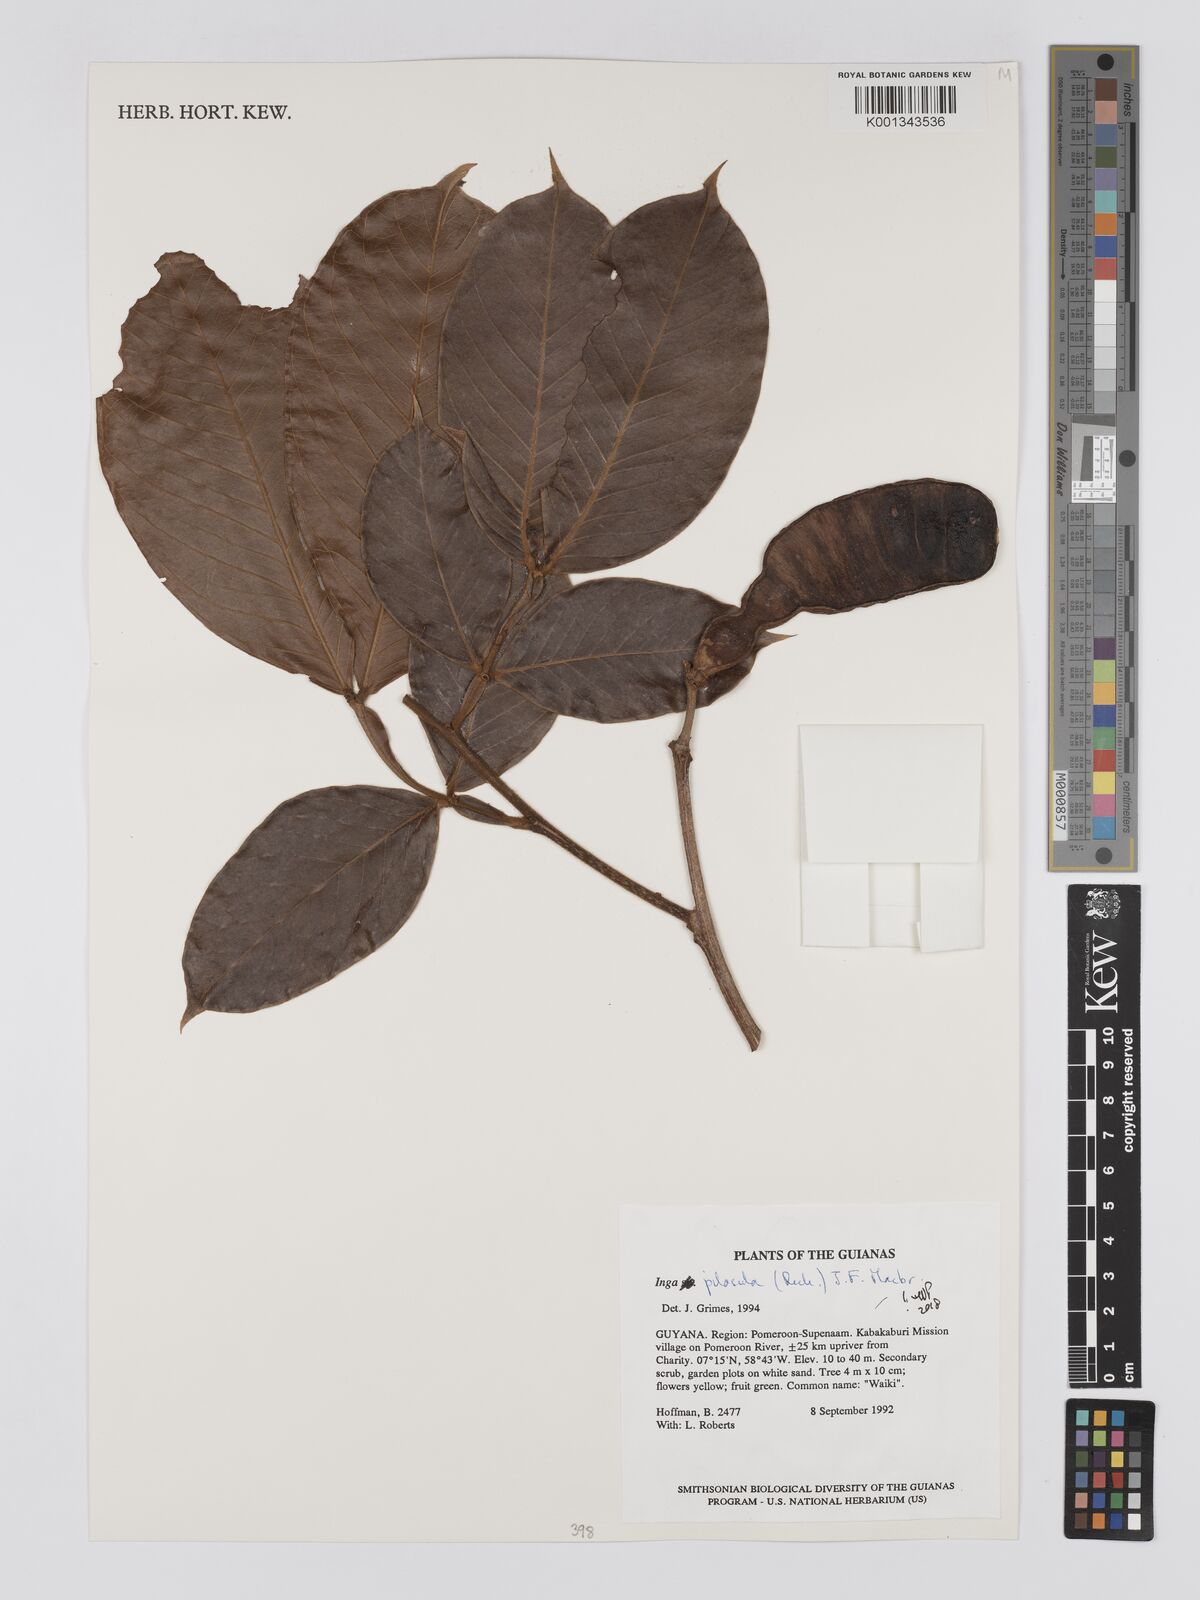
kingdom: Plantae
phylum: Tracheophyta
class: Magnoliopsida
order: Fabales
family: Fabaceae
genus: Inga
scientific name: Inga pilosula
